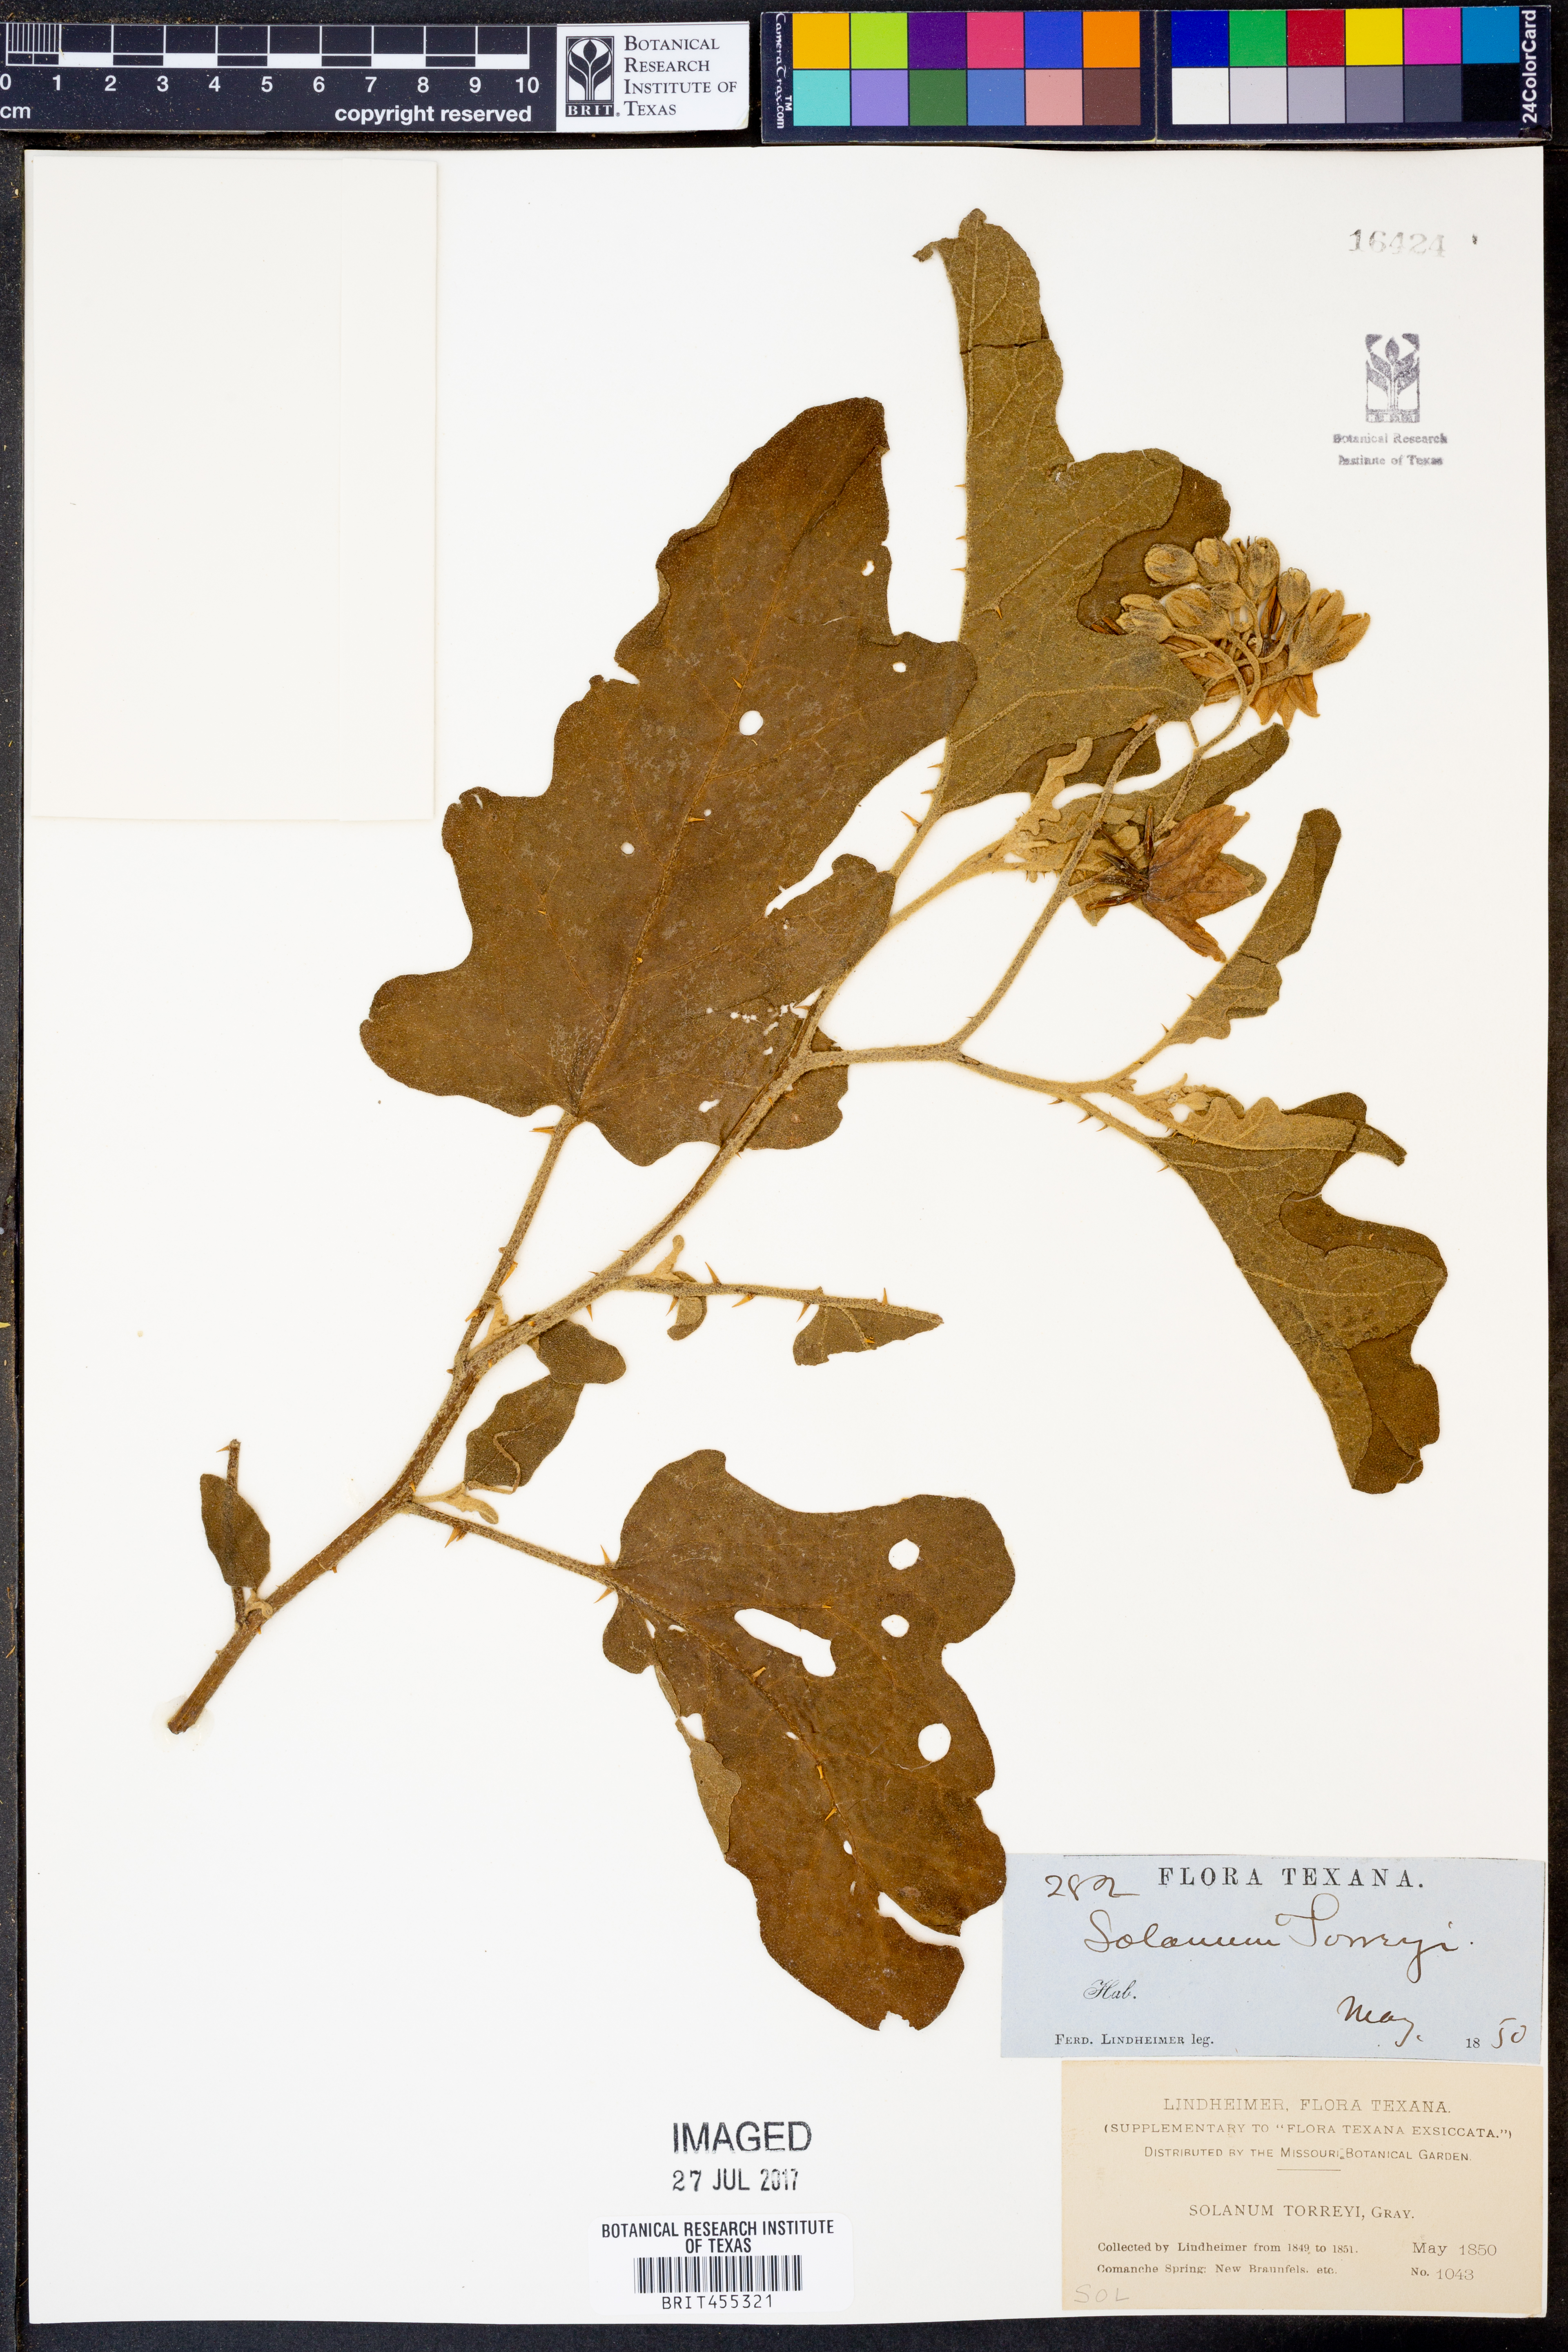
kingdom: Plantae
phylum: Tracheophyta
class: Magnoliopsida
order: Solanales
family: Solanaceae
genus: Solanum
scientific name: Solanum dimidiatum
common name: Carolina horse-nettle
